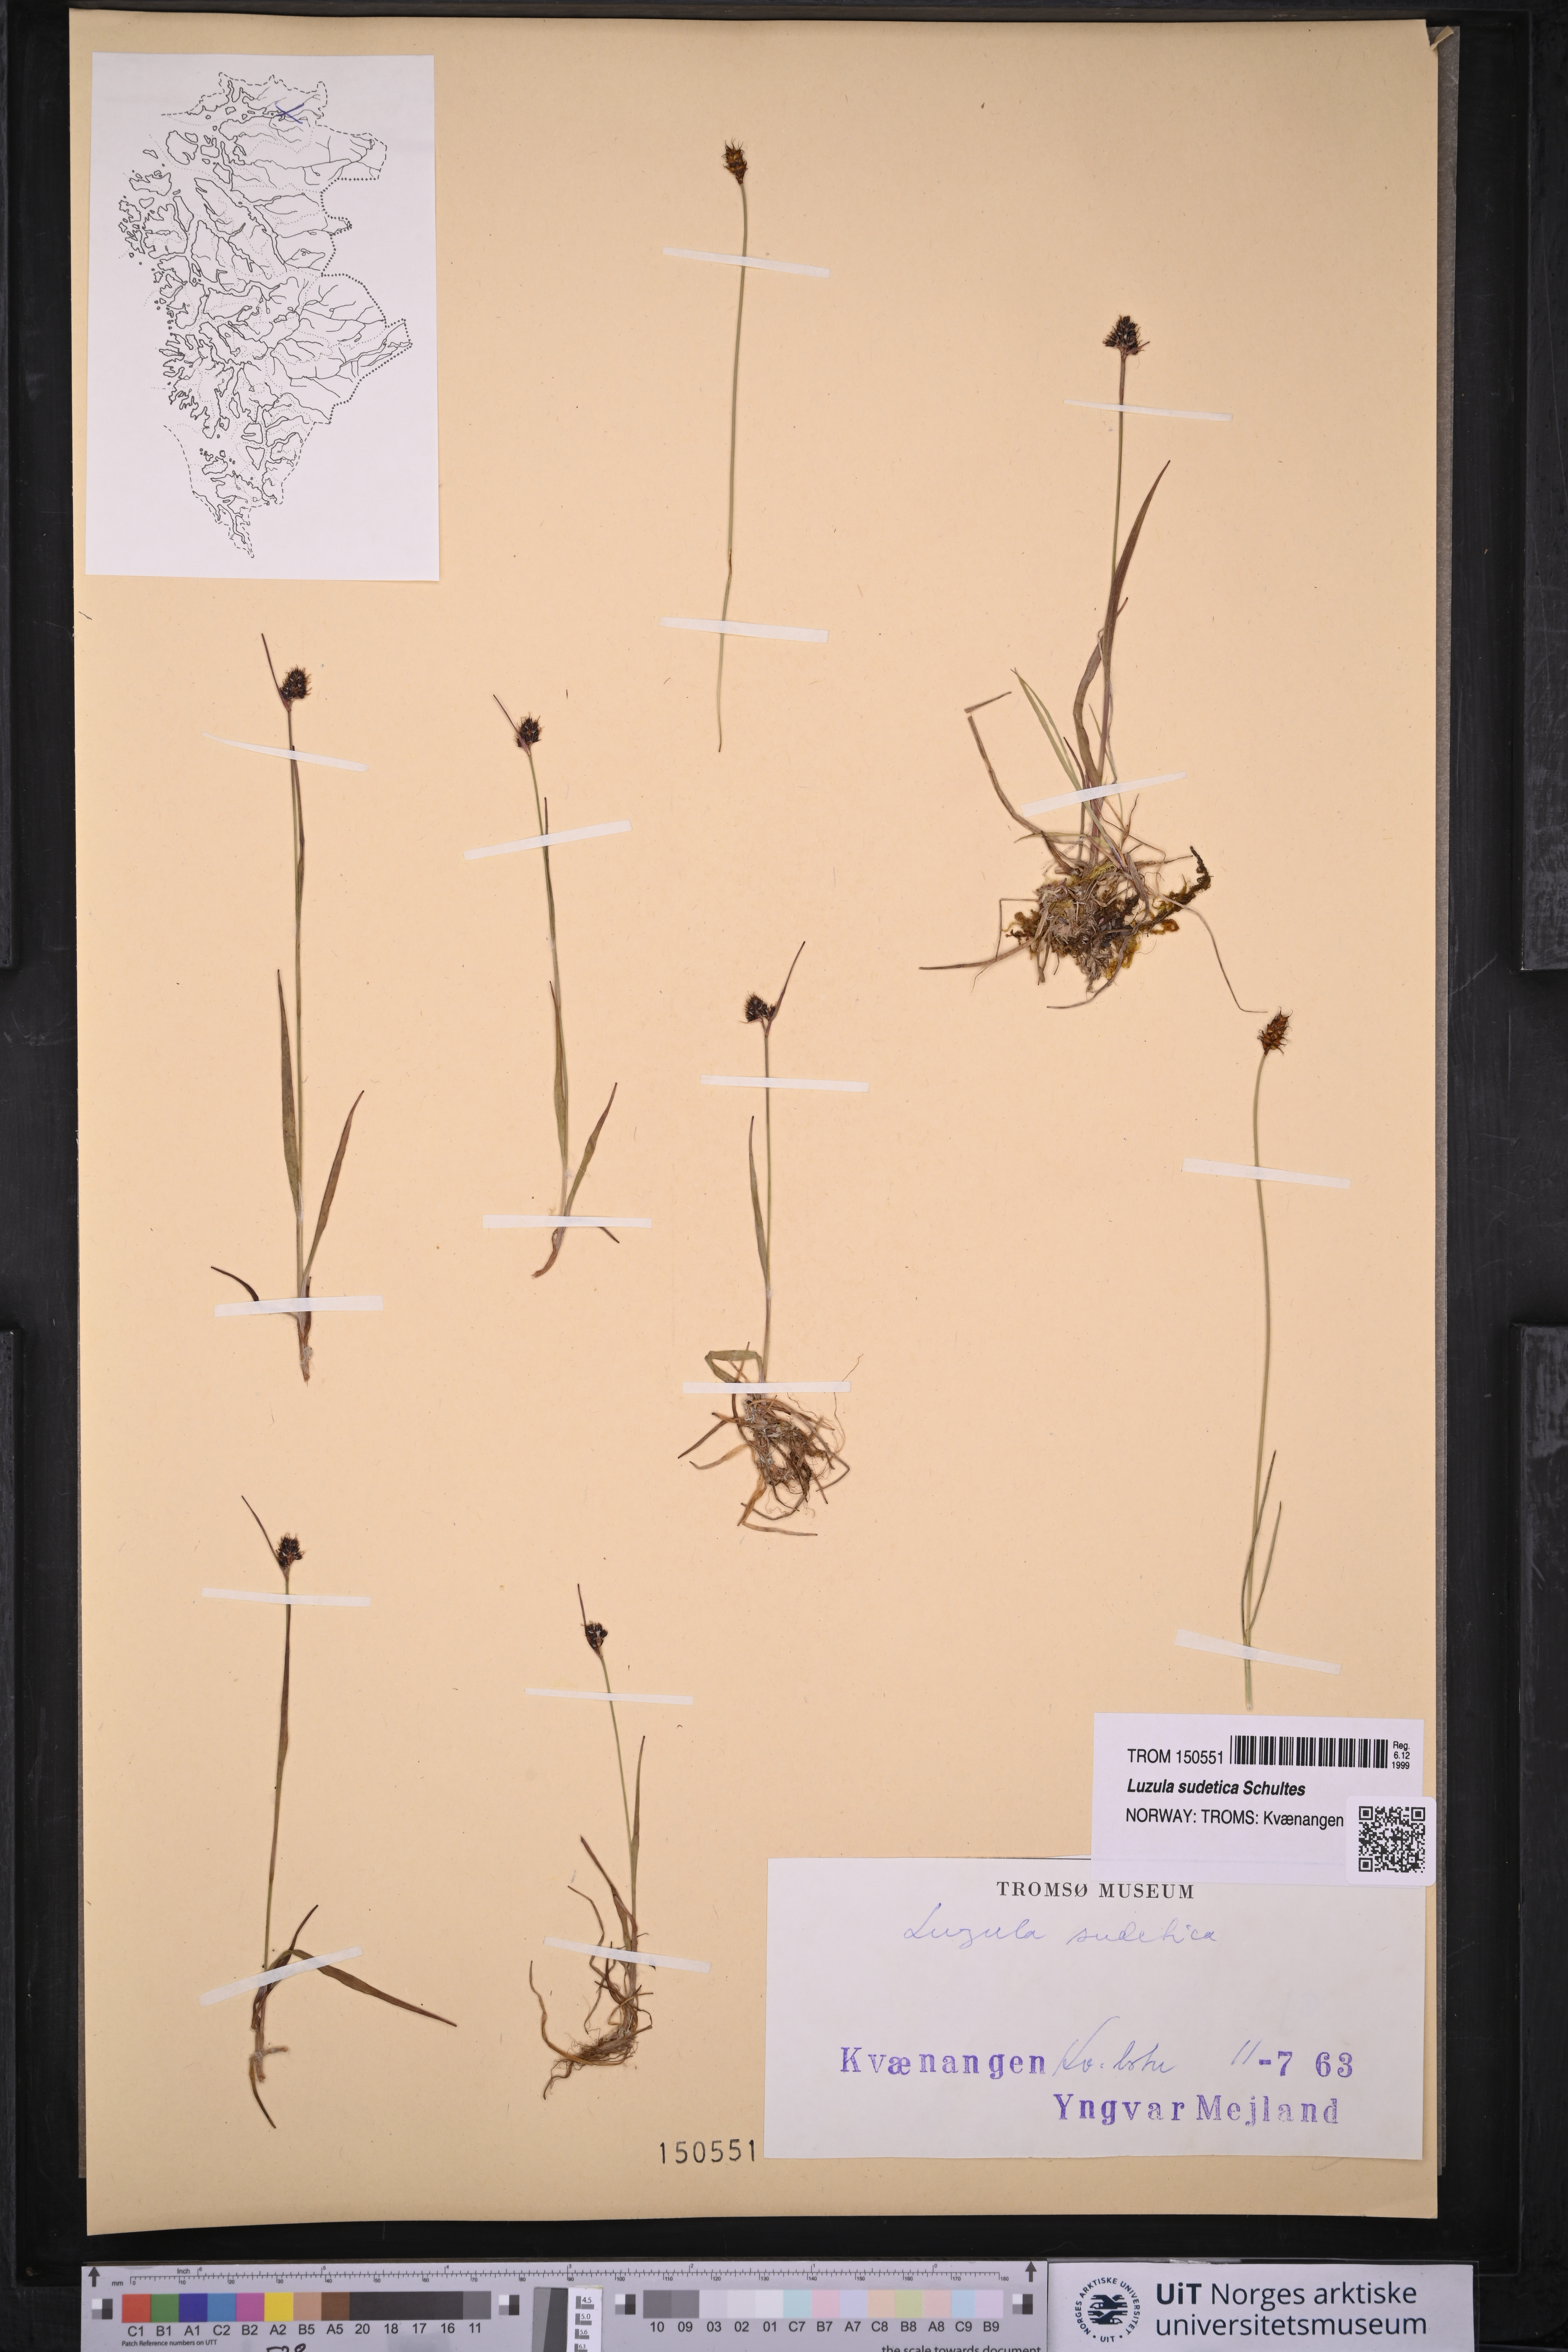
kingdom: Plantae
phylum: Tracheophyta
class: Liliopsida
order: Poales
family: Juncaceae
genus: Luzula
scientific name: Luzula sudetica
